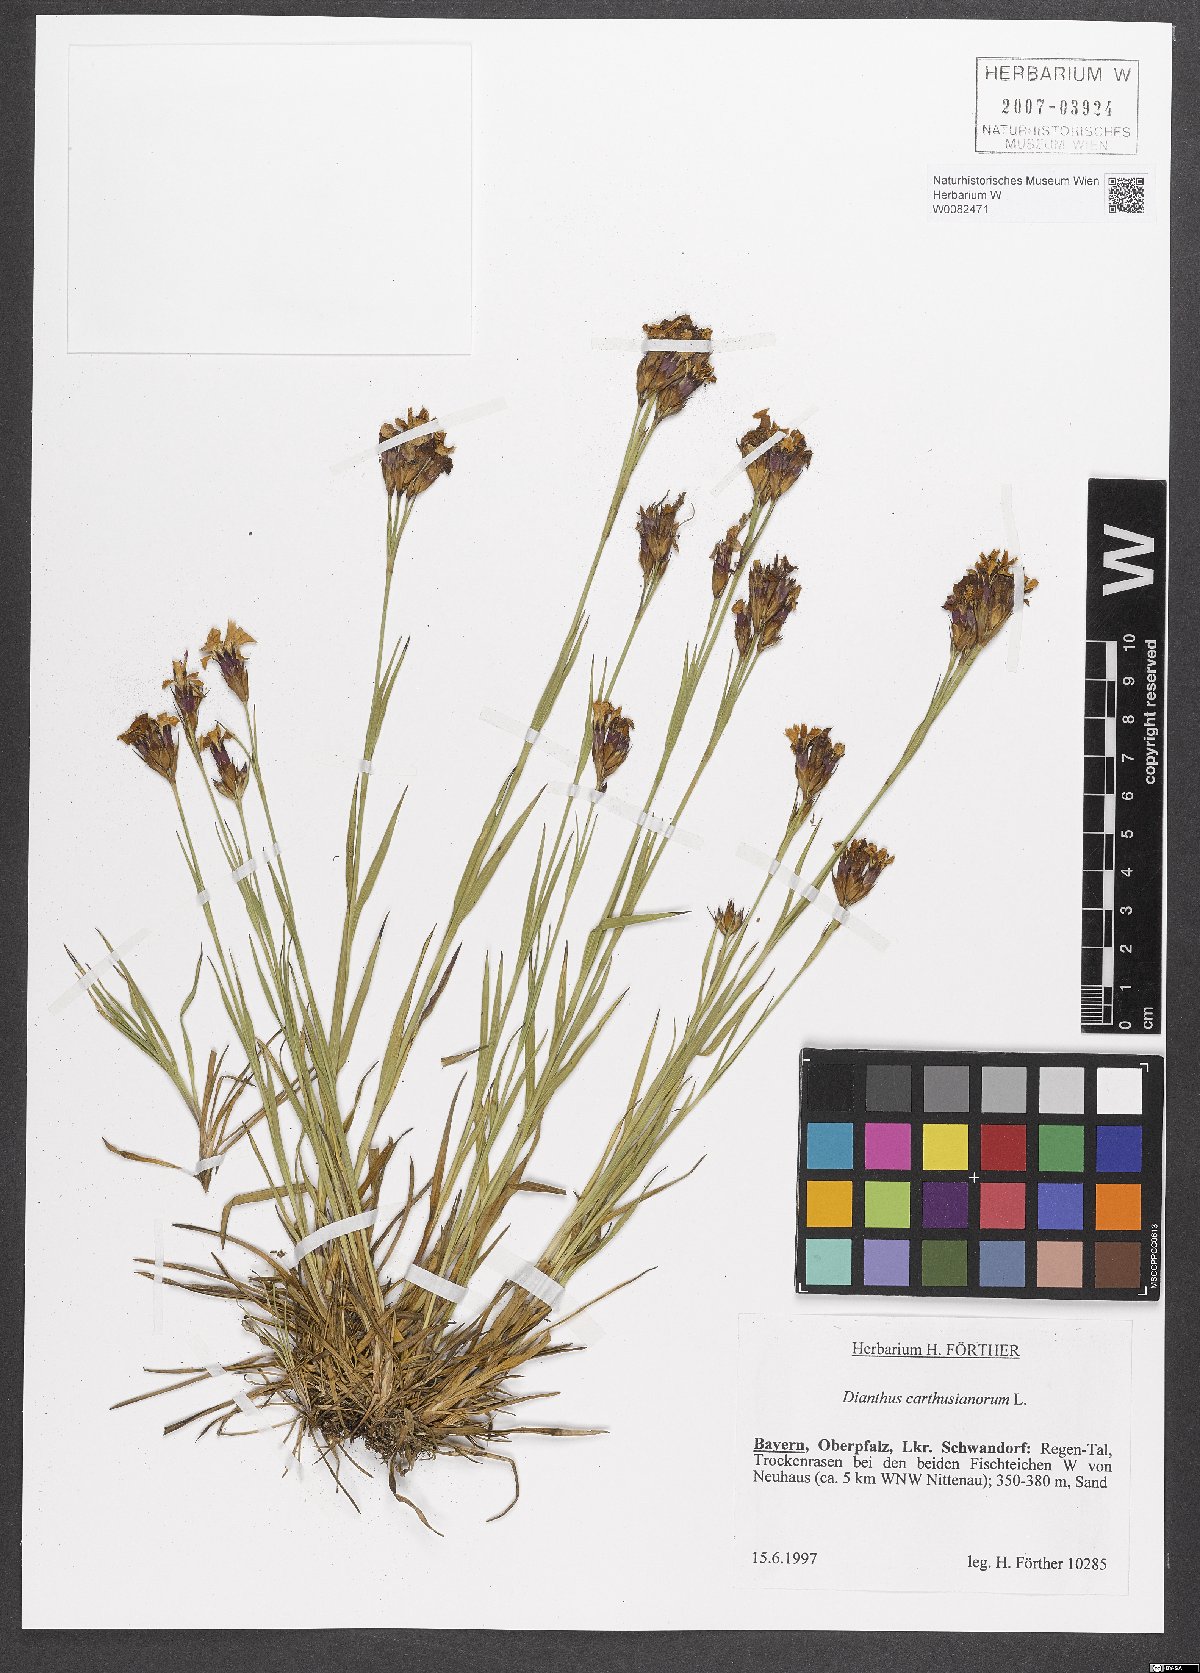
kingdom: Plantae
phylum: Tracheophyta
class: Magnoliopsida
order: Caryophyllales
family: Caryophyllaceae
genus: Dianthus
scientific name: Dianthus carthusianorum
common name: Carthusian pink
